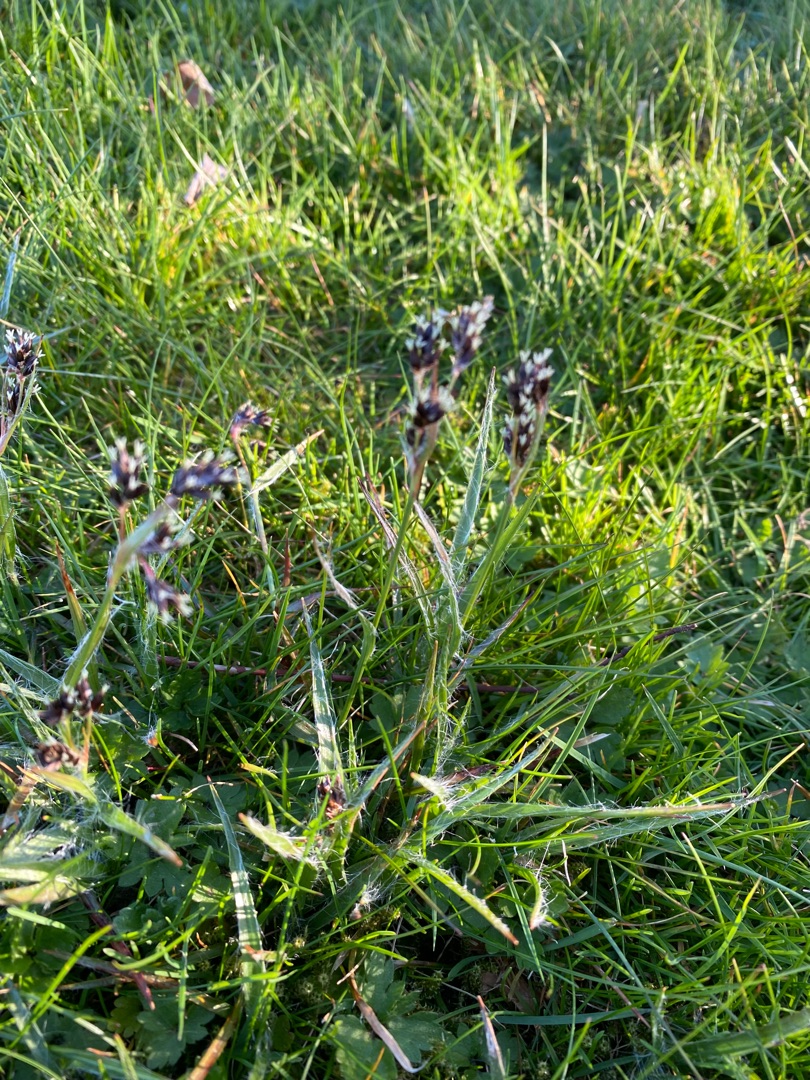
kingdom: Plantae
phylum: Tracheophyta
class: Liliopsida
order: Poales
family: Juncaceae
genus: Luzula
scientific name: Luzula campestris
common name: Mark-frytle
